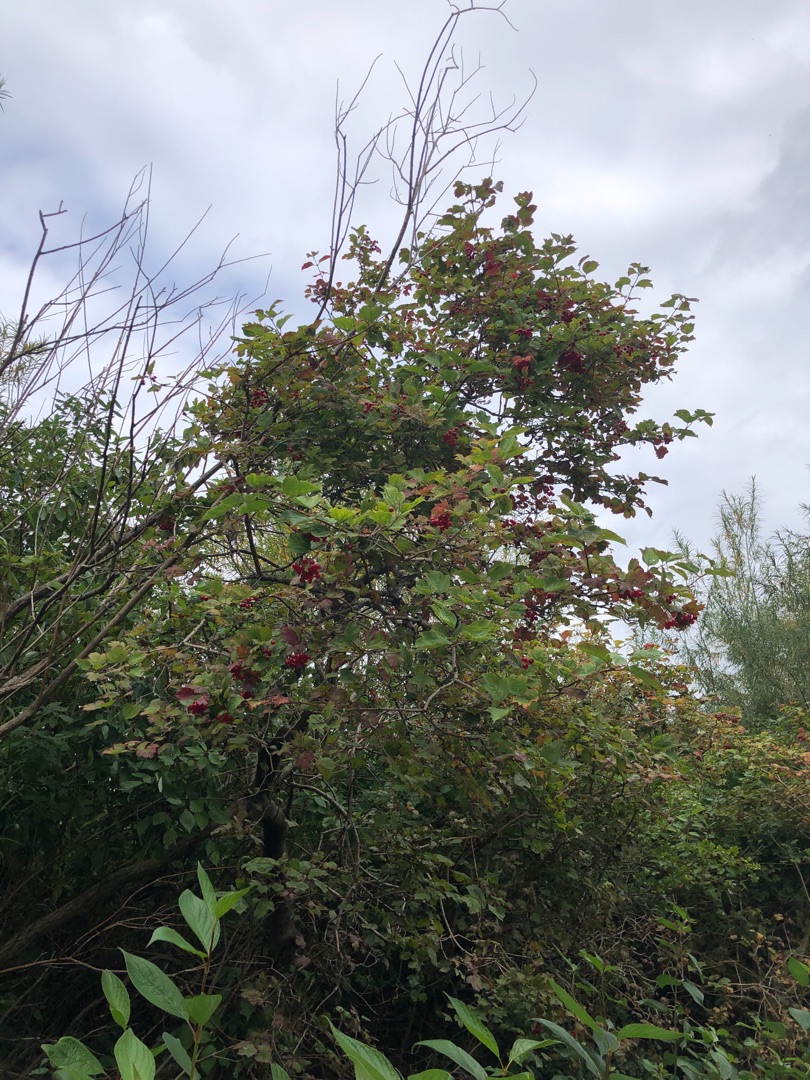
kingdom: Plantae
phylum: Tracheophyta
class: Magnoliopsida
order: Dipsacales
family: Viburnaceae
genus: Viburnum
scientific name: Viburnum opulus
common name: Kvalkved
